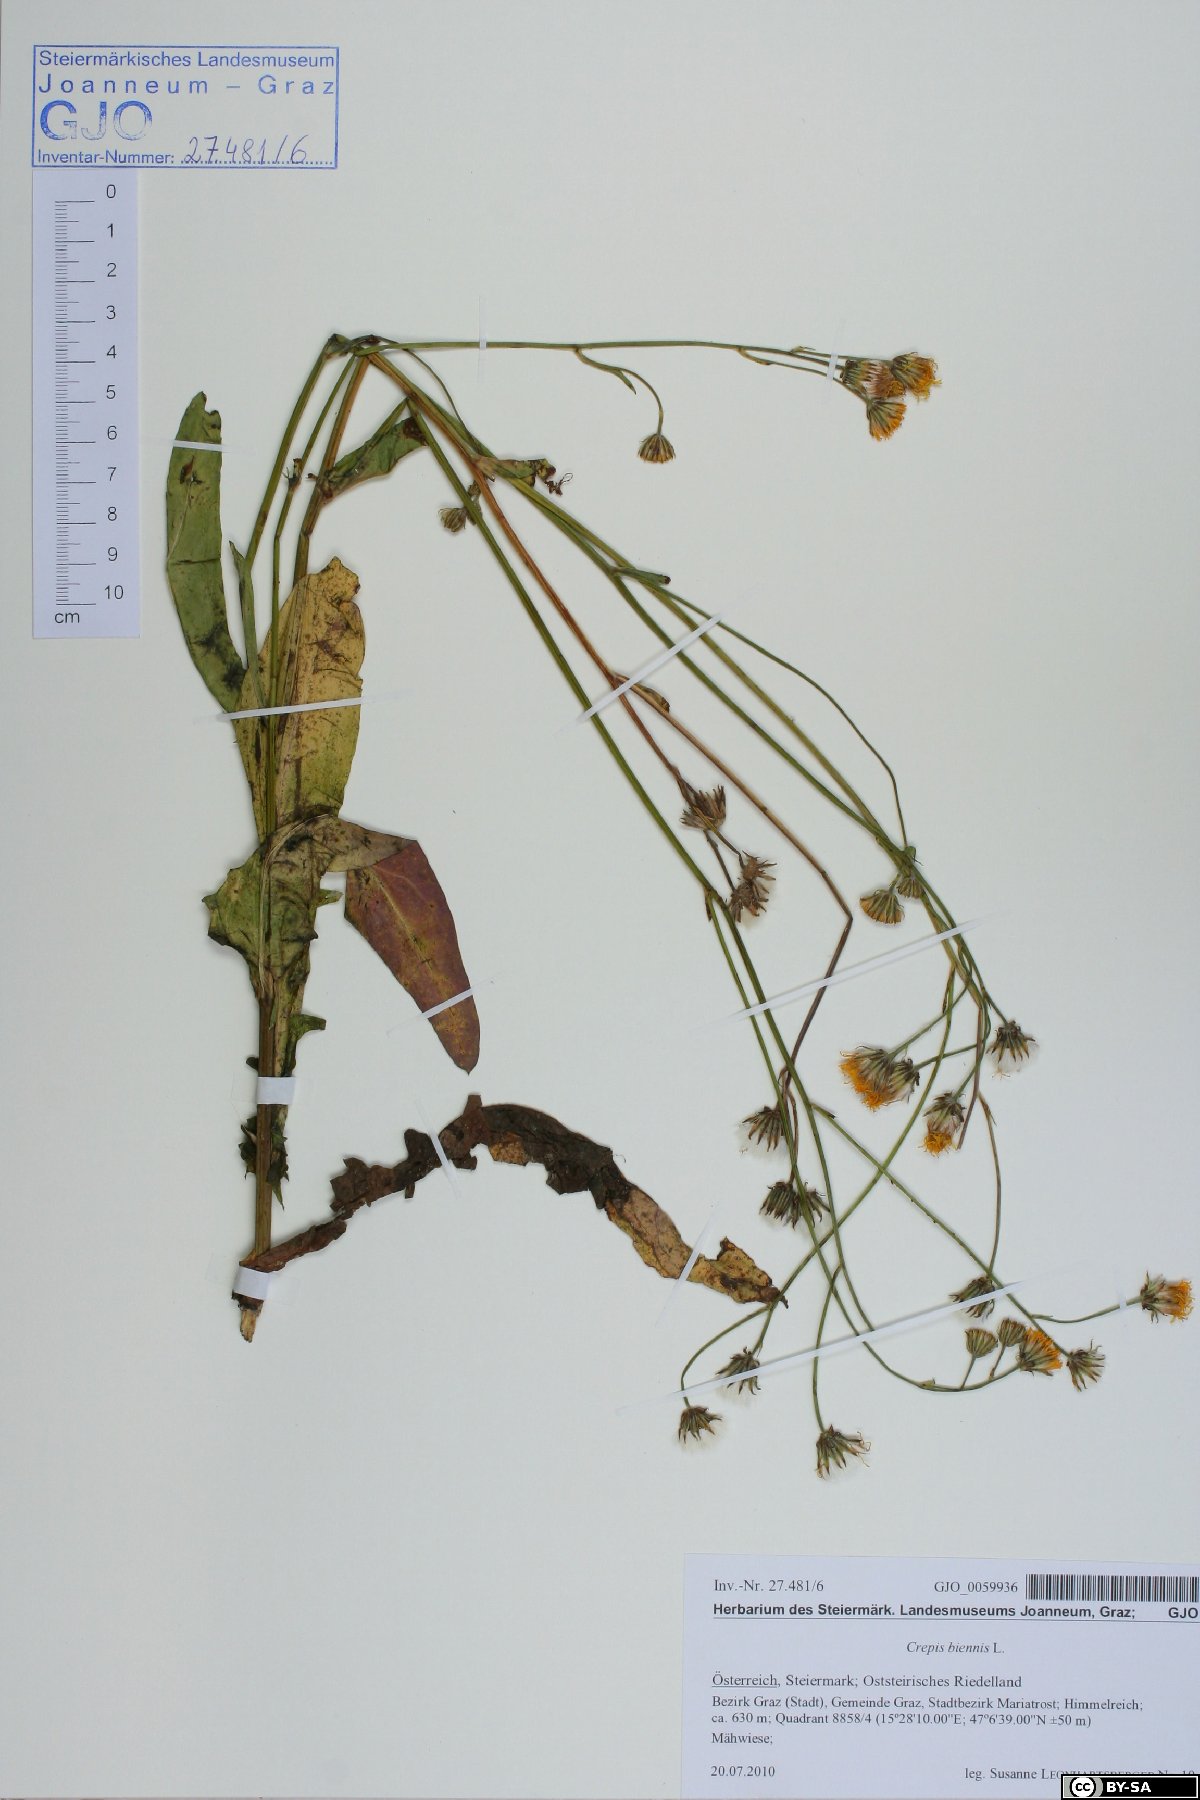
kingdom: Plantae
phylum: Tracheophyta
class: Magnoliopsida
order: Asterales
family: Asteraceae
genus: Crepis
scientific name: Crepis biennis
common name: Rough hawk's-beard
